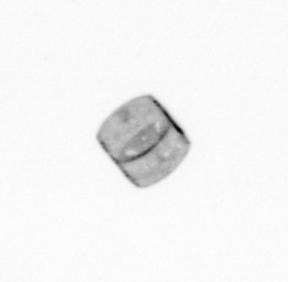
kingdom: Chromista
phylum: Ochrophyta
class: Bacillariophyceae
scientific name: Bacillariophyceae
